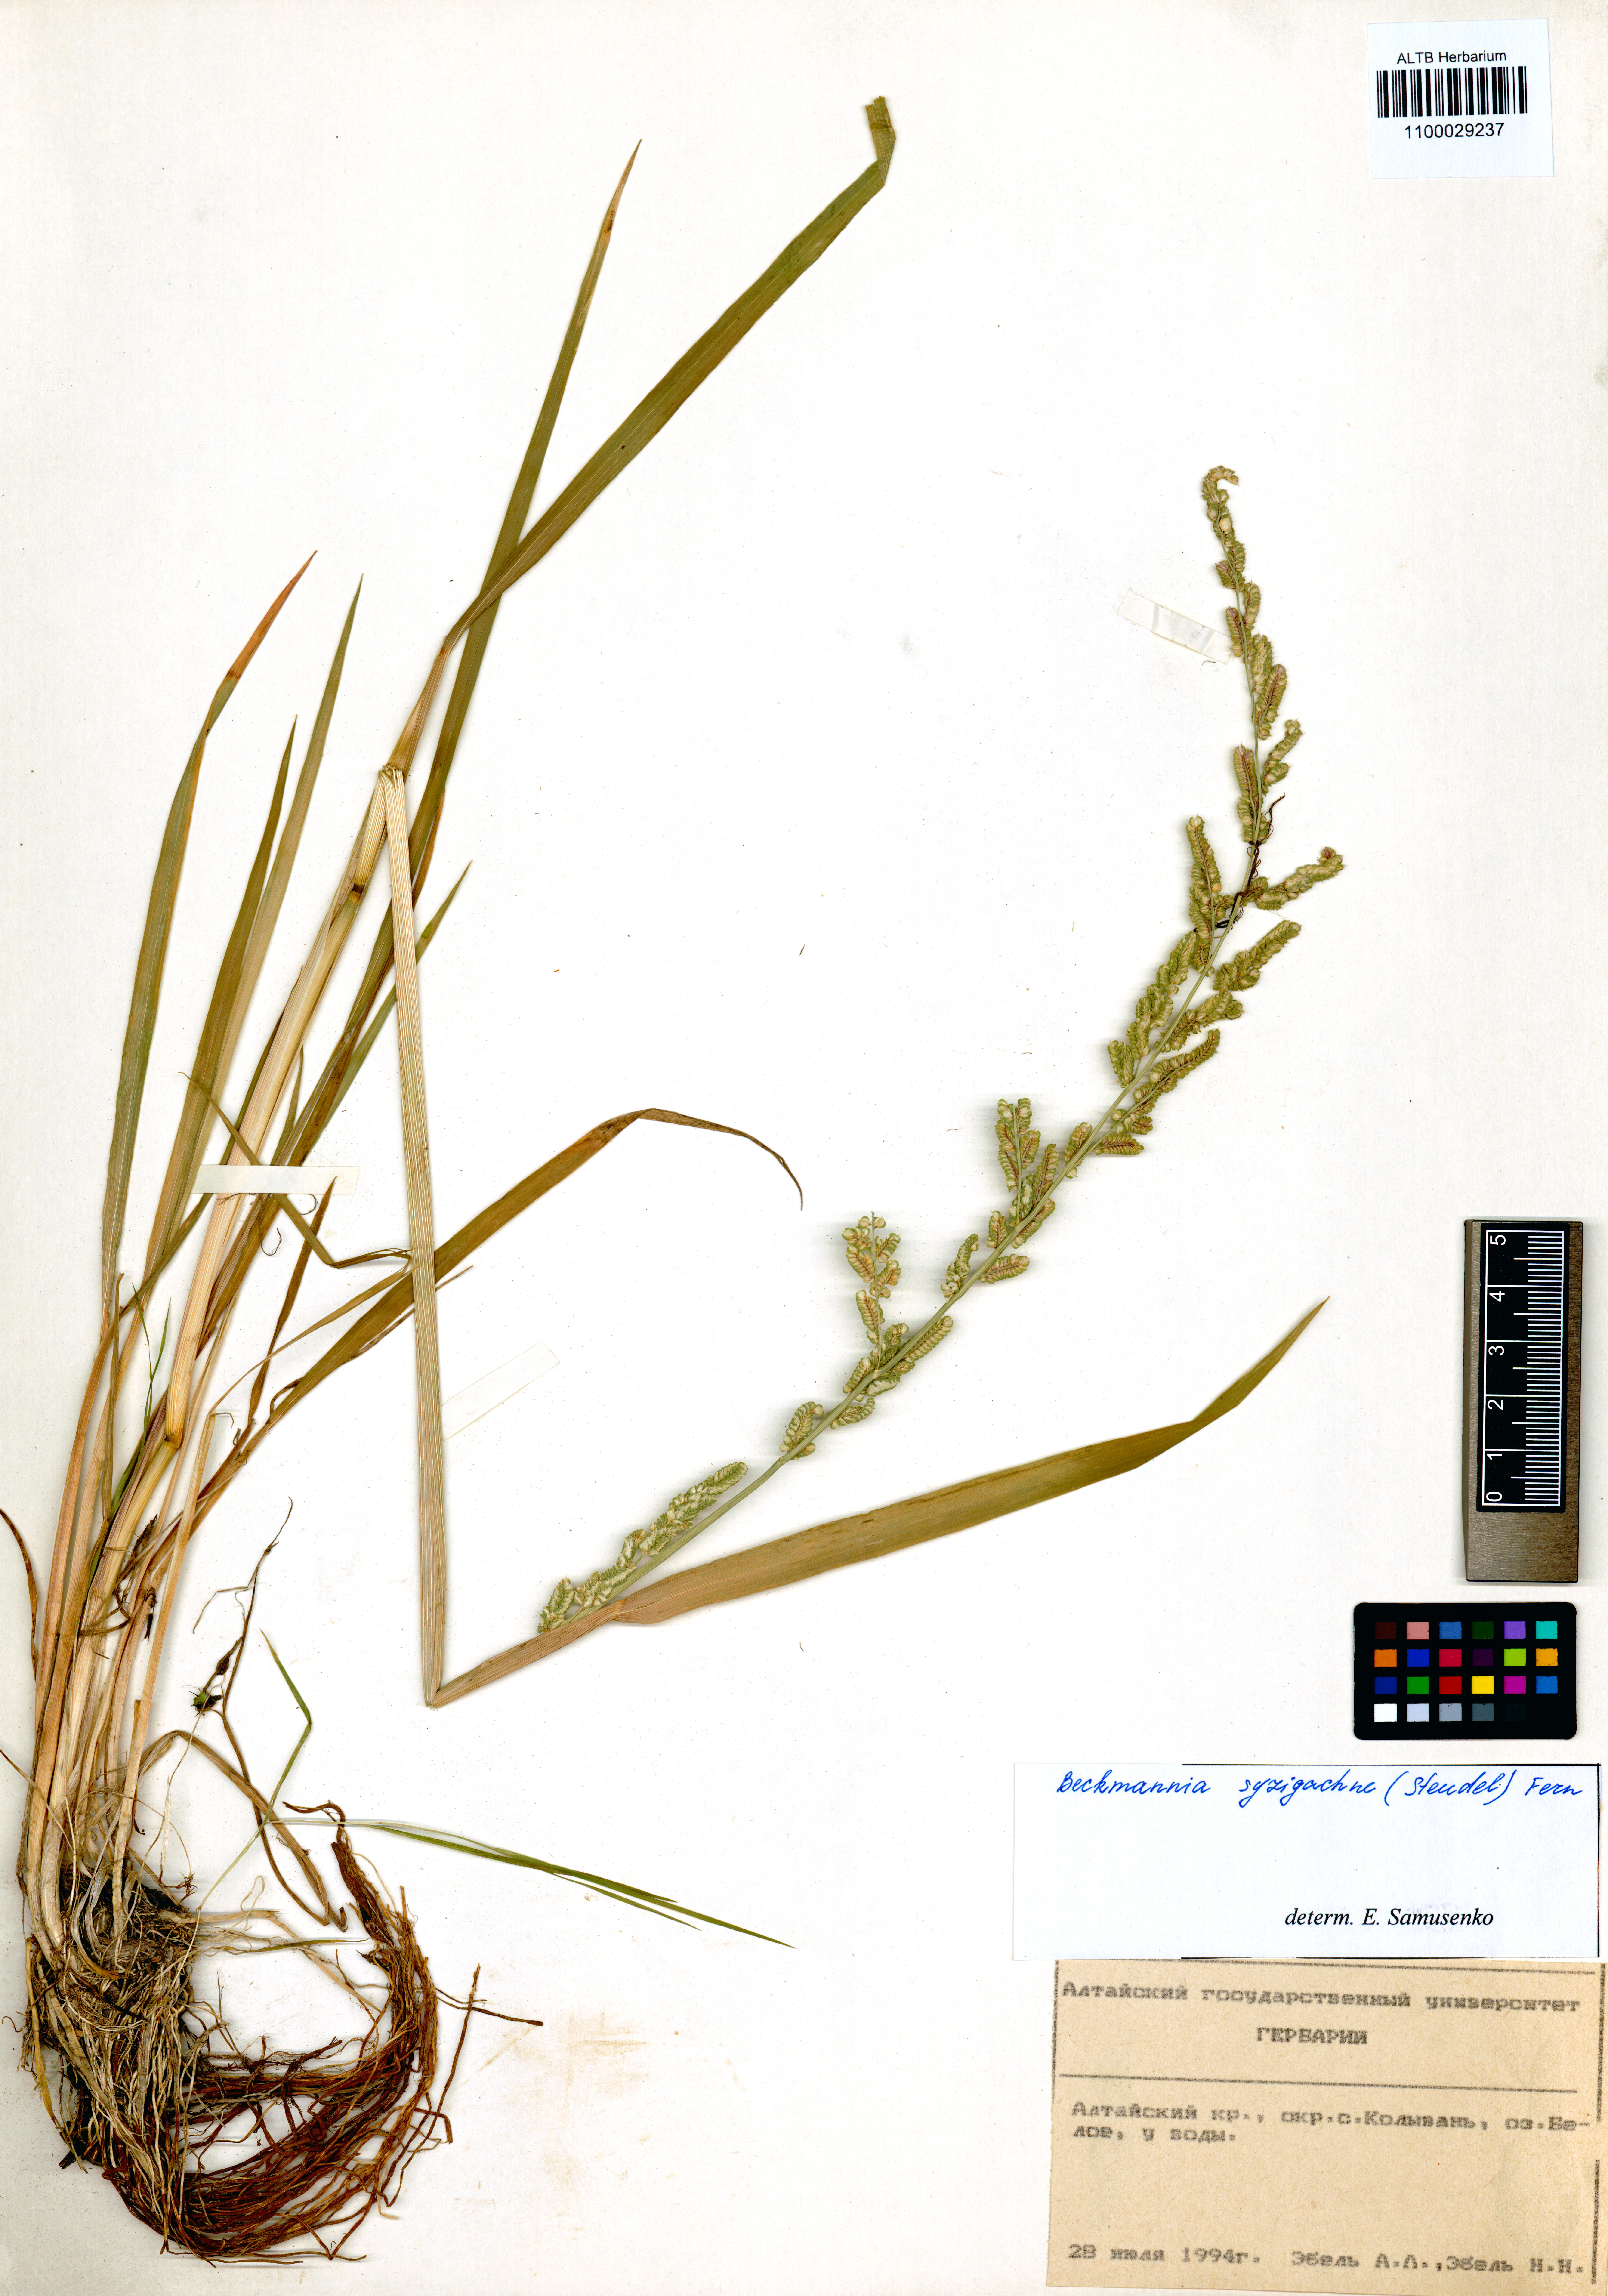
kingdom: Plantae
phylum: Tracheophyta
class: Liliopsida
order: Poales
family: Poaceae
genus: Beckmannia
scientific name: Beckmannia syzigachne
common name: American slough-grass
